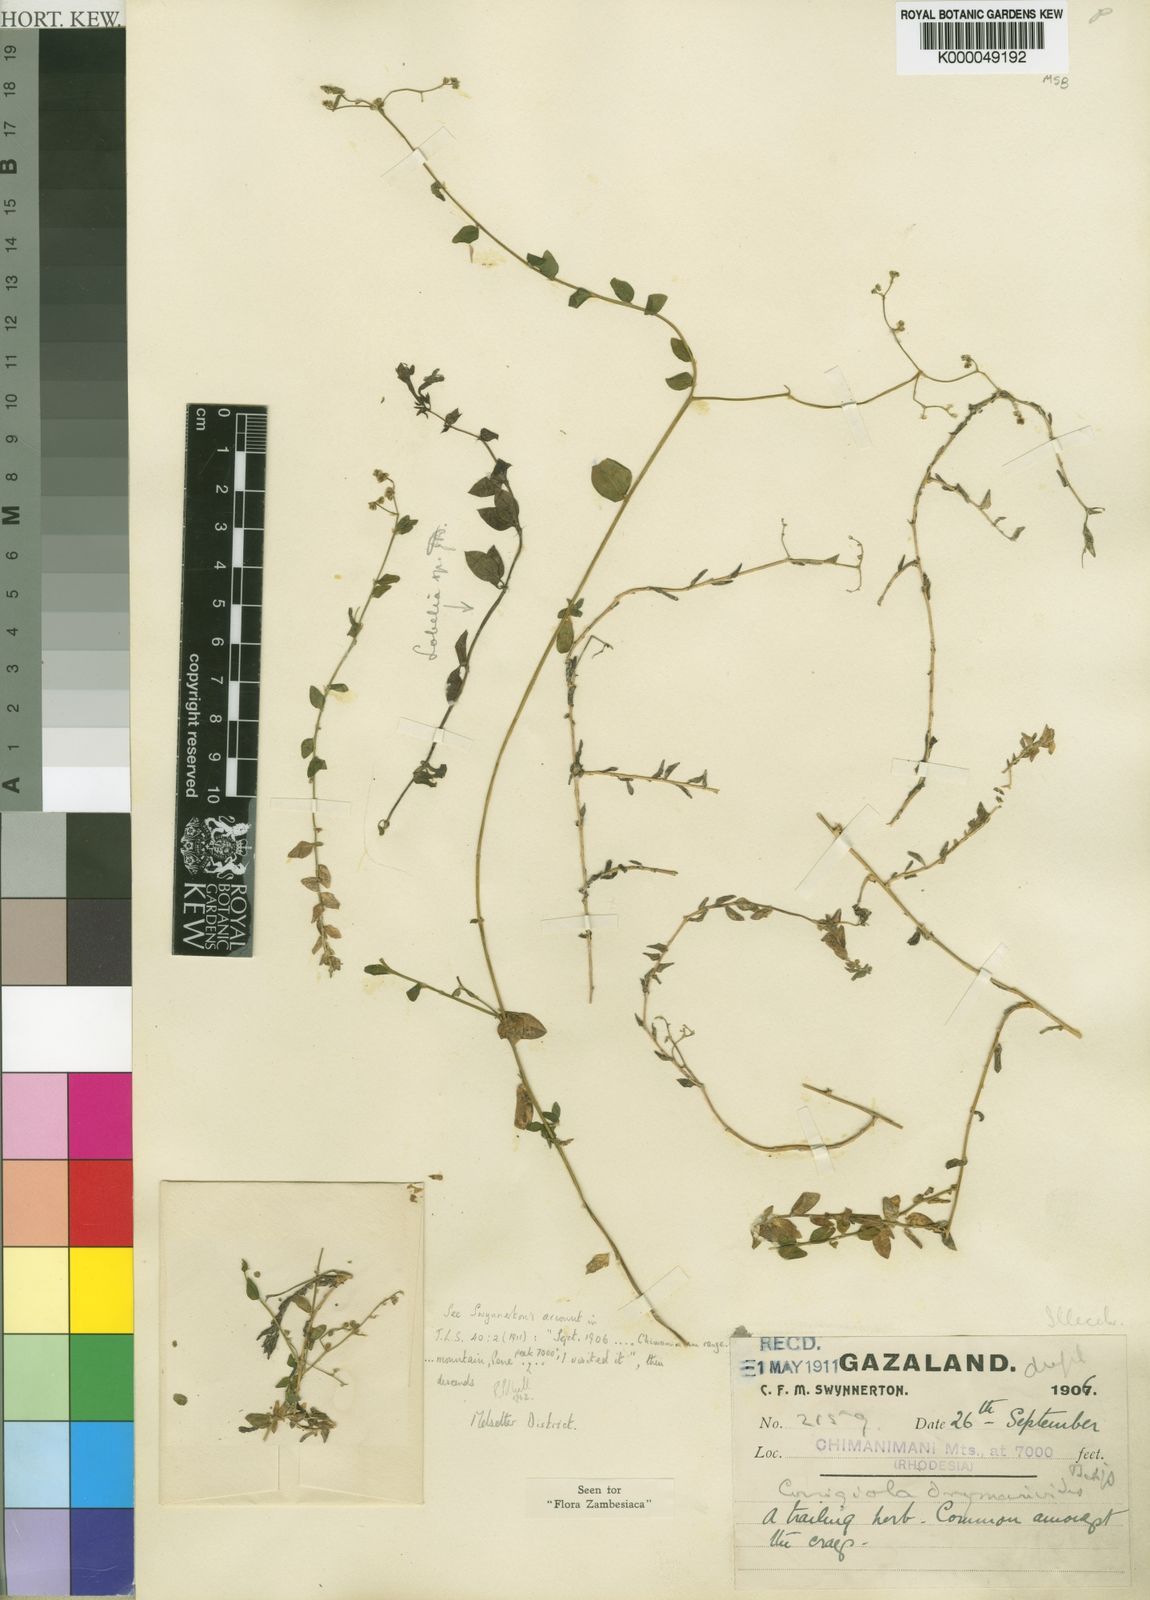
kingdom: Plantae
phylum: Tracheophyta
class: Magnoliopsida
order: Caryophyllales
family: Caryophyllaceae
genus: Corrigiola
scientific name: Corrigiola drymarioides
